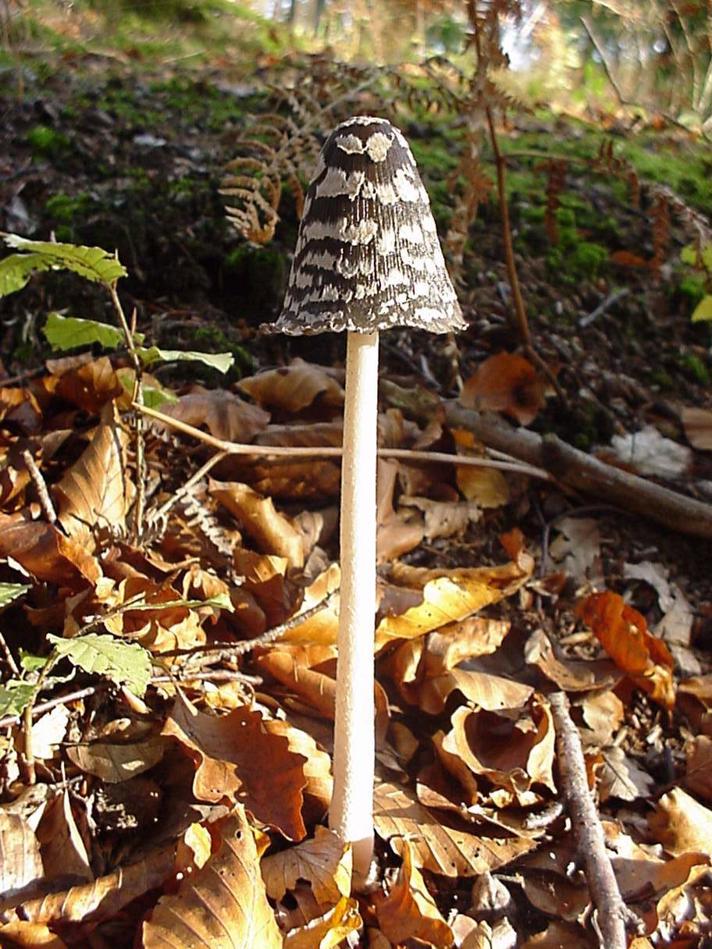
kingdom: Fungi
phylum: Basidiomycota
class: Agaricomycetes
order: Agaricales
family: Psathyrellaceae
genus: Coprinopsis
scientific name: Coprinopsis picacea
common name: skade-blækhat
